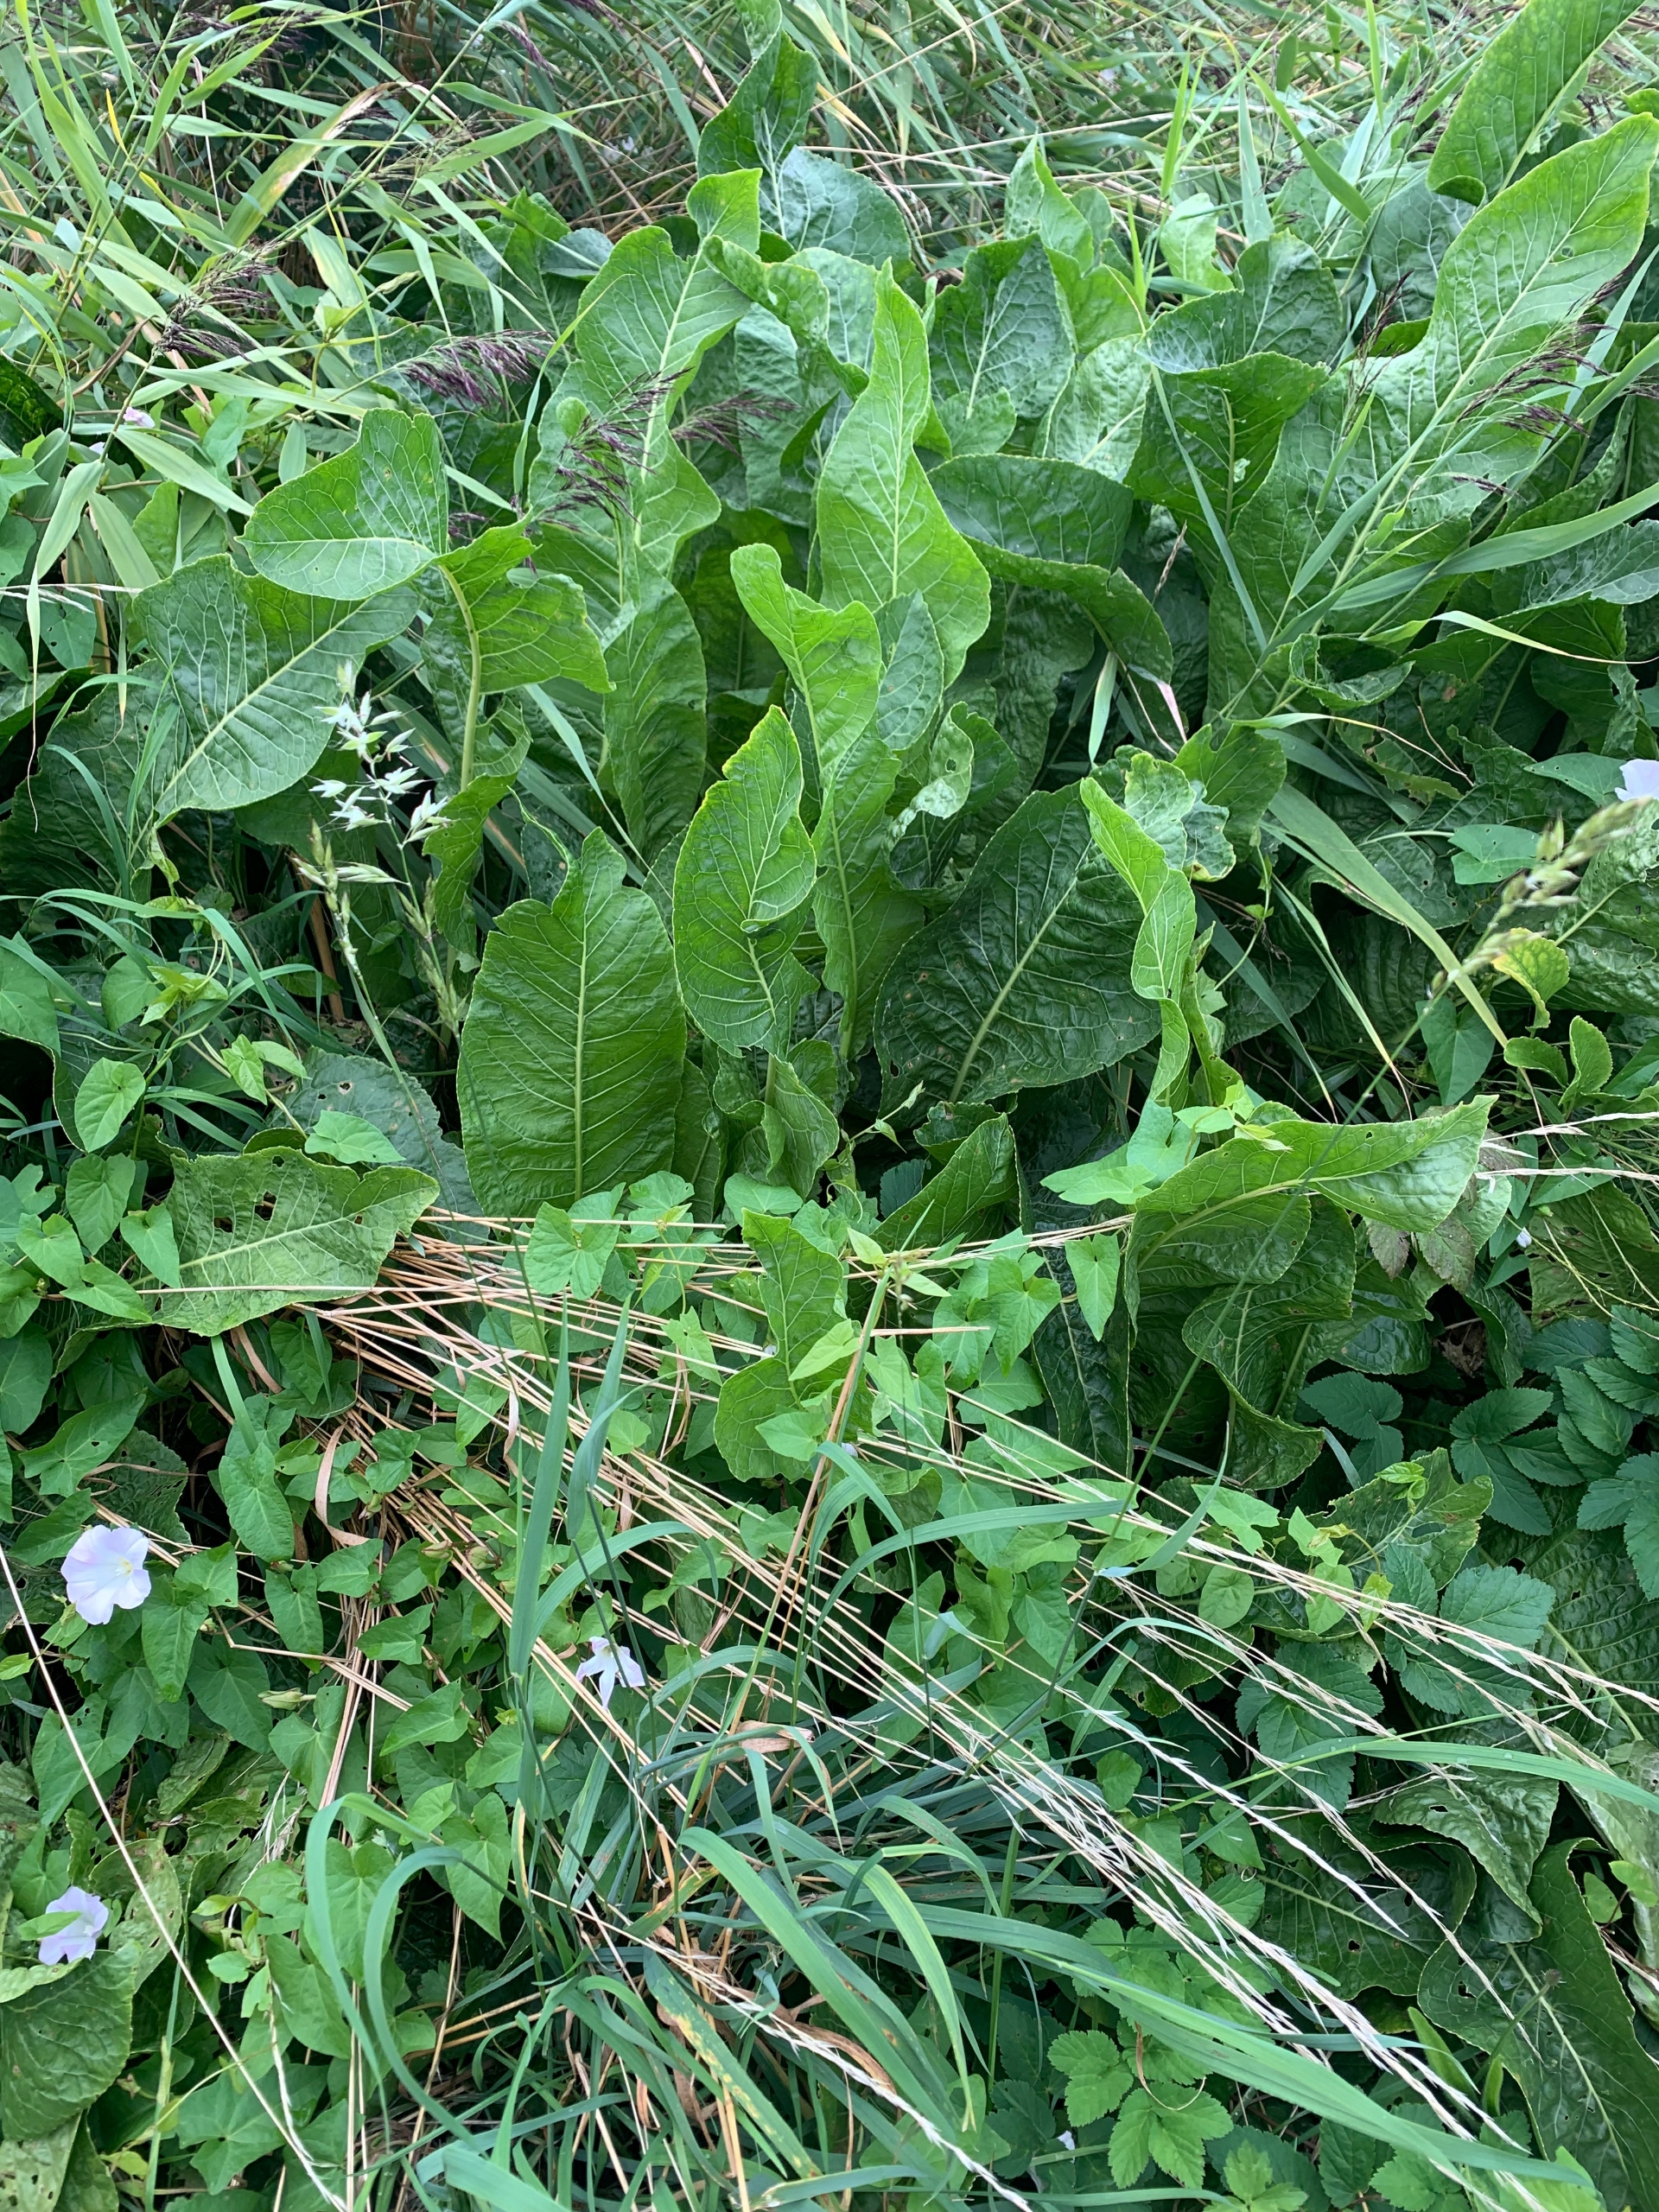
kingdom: Plantae
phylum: Tracheophyta
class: Liliopsida
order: Poales
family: Poaceae
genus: Arrhenatherum
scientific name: Arrhenatherum elatius
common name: Draphavre
